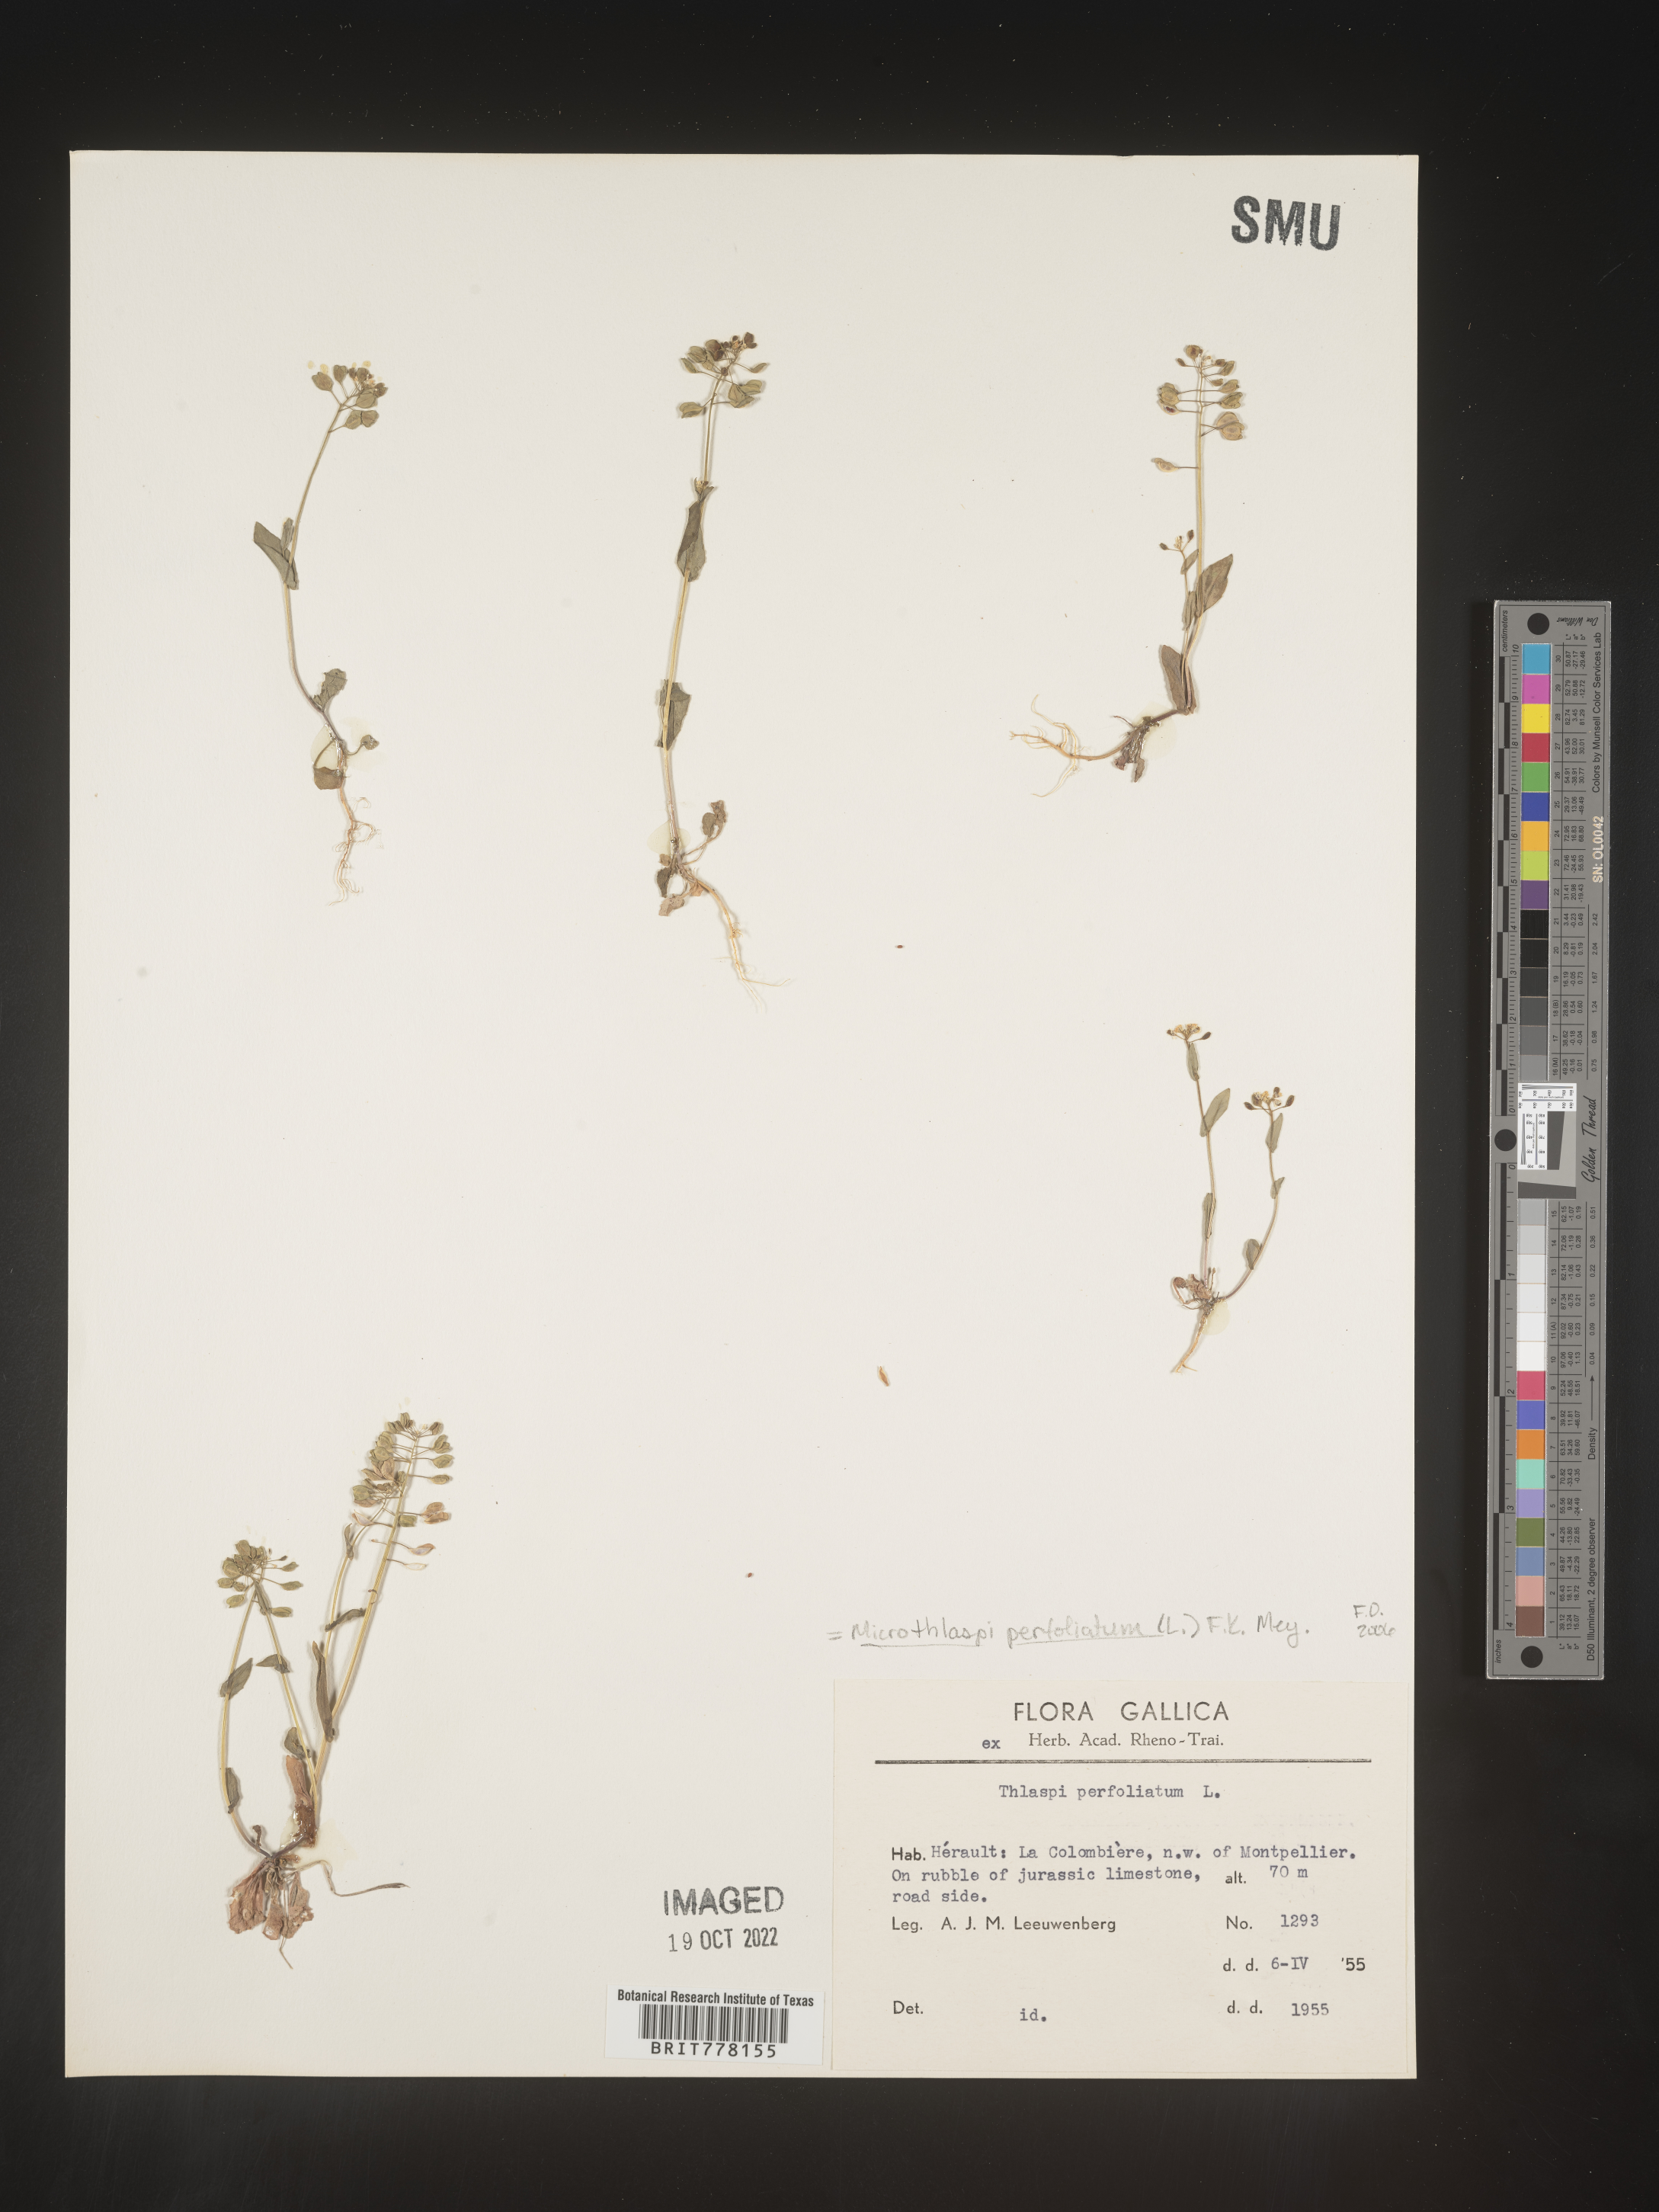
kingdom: Plantae
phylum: Tracheophyta
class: Magnoliopsida
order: Brassicales
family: Brassicaceae
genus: Noccaea
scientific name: Noccaea
